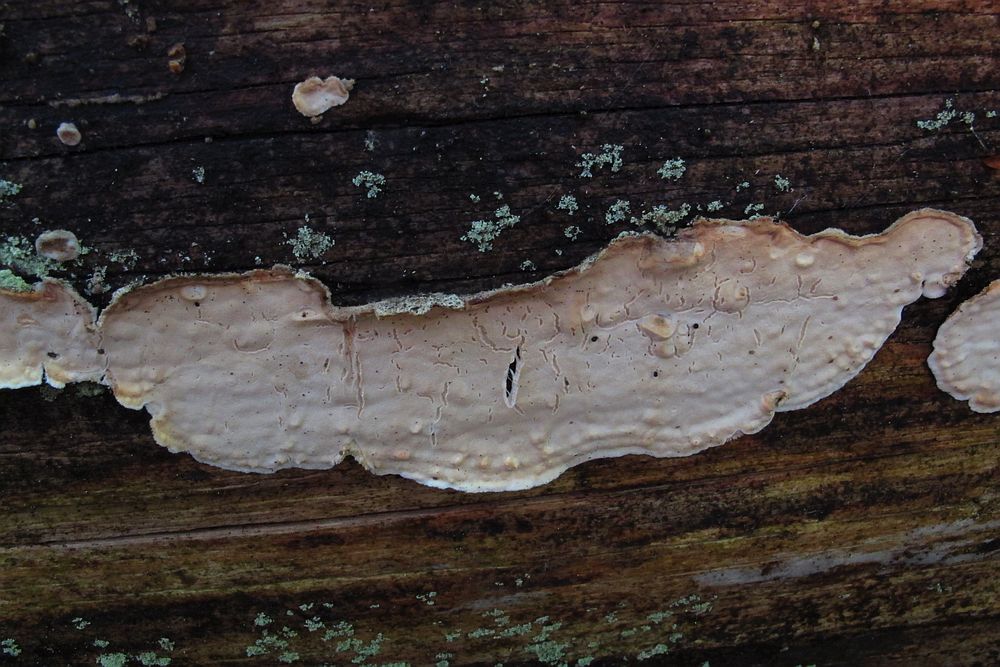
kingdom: Fungi
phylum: Basidiomycota
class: Agaricomycetes
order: Polyporales
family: Dacryobolaceae
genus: Dacryobolus
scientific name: Dacryobolus karstenii
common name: glat vulkanskorpe
